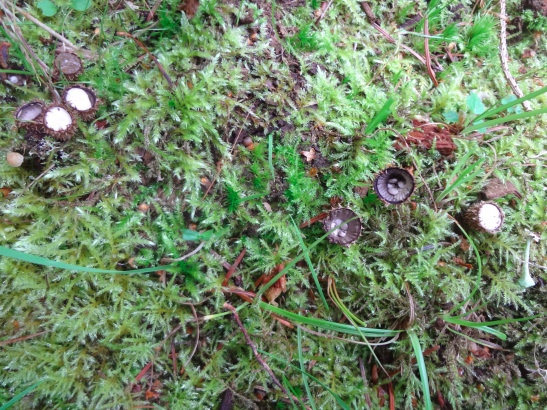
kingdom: Fungi
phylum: Basidiomycota
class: Agaricomycetes
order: Agaricales
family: Agaricaceae
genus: Cyathus
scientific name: Cyathus striatus
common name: stribet redesvamp
